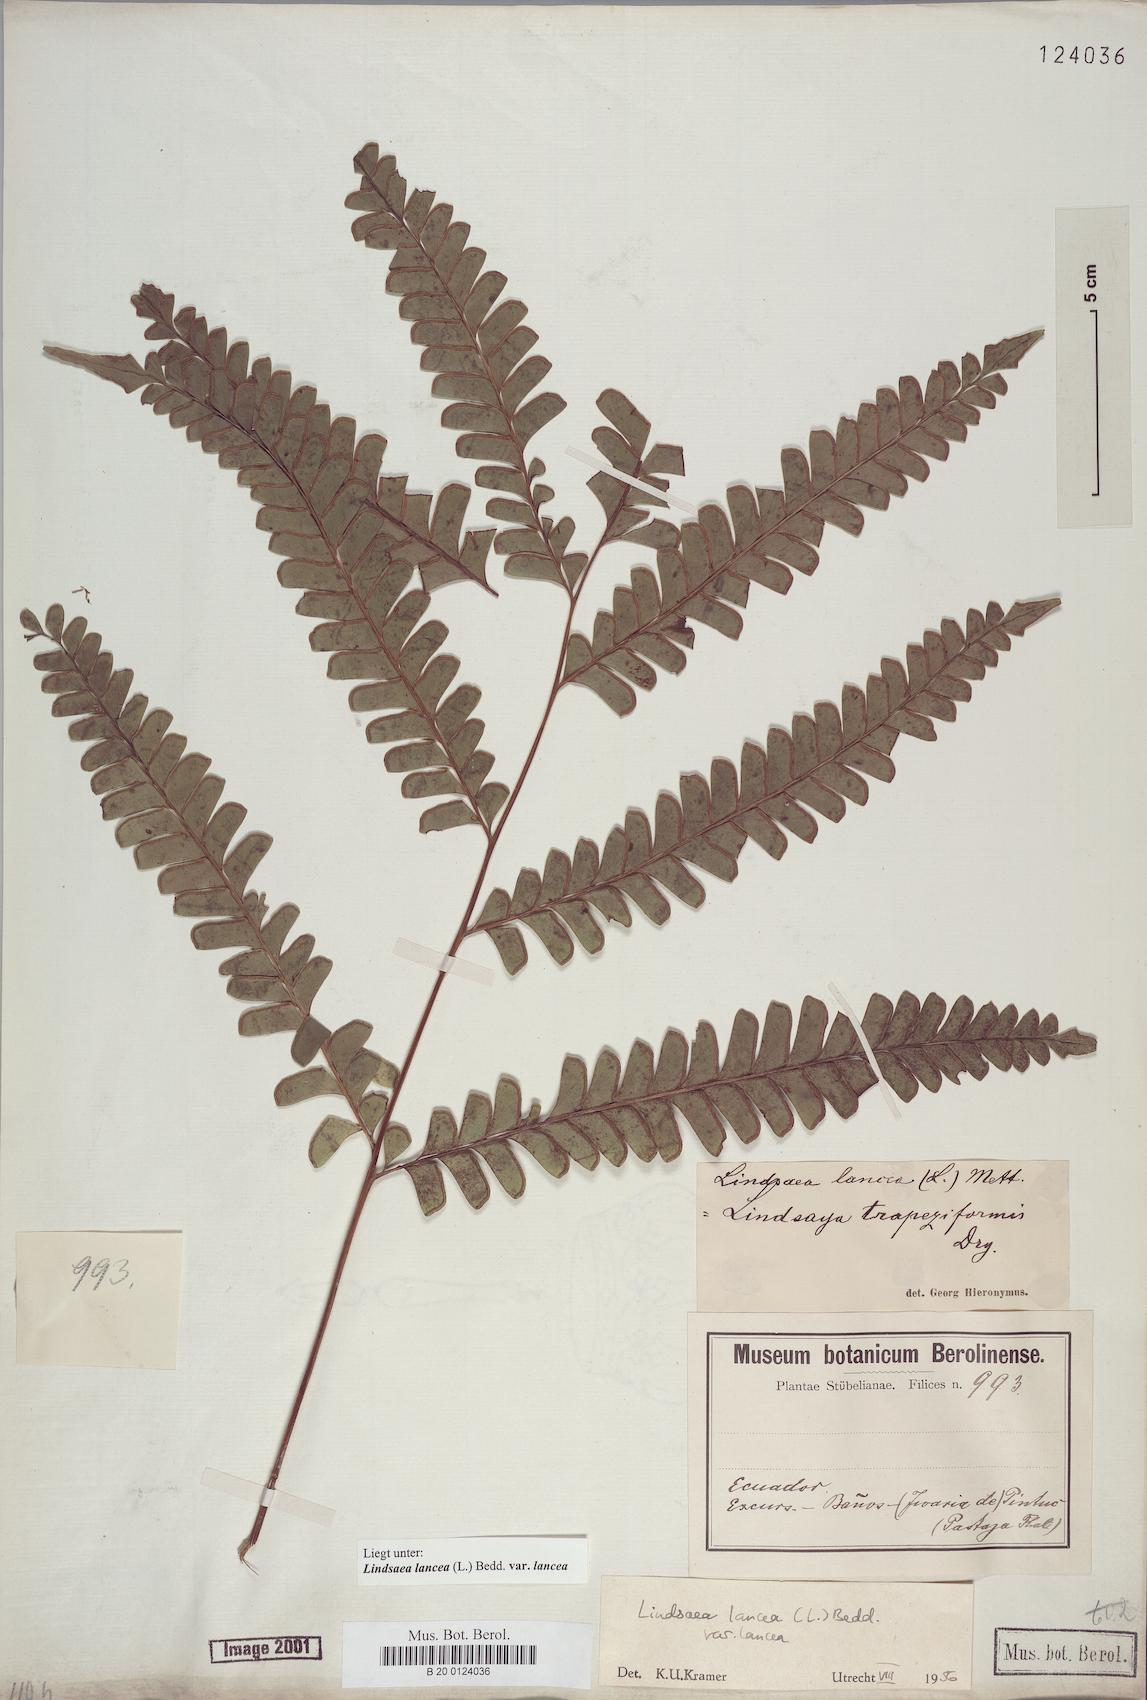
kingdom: Plantae
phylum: Tracheophyta
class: Polypodiopsida
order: Polypodiales
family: Lindsaeaceae
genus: Lindsaea
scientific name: Lindsaea lancea
